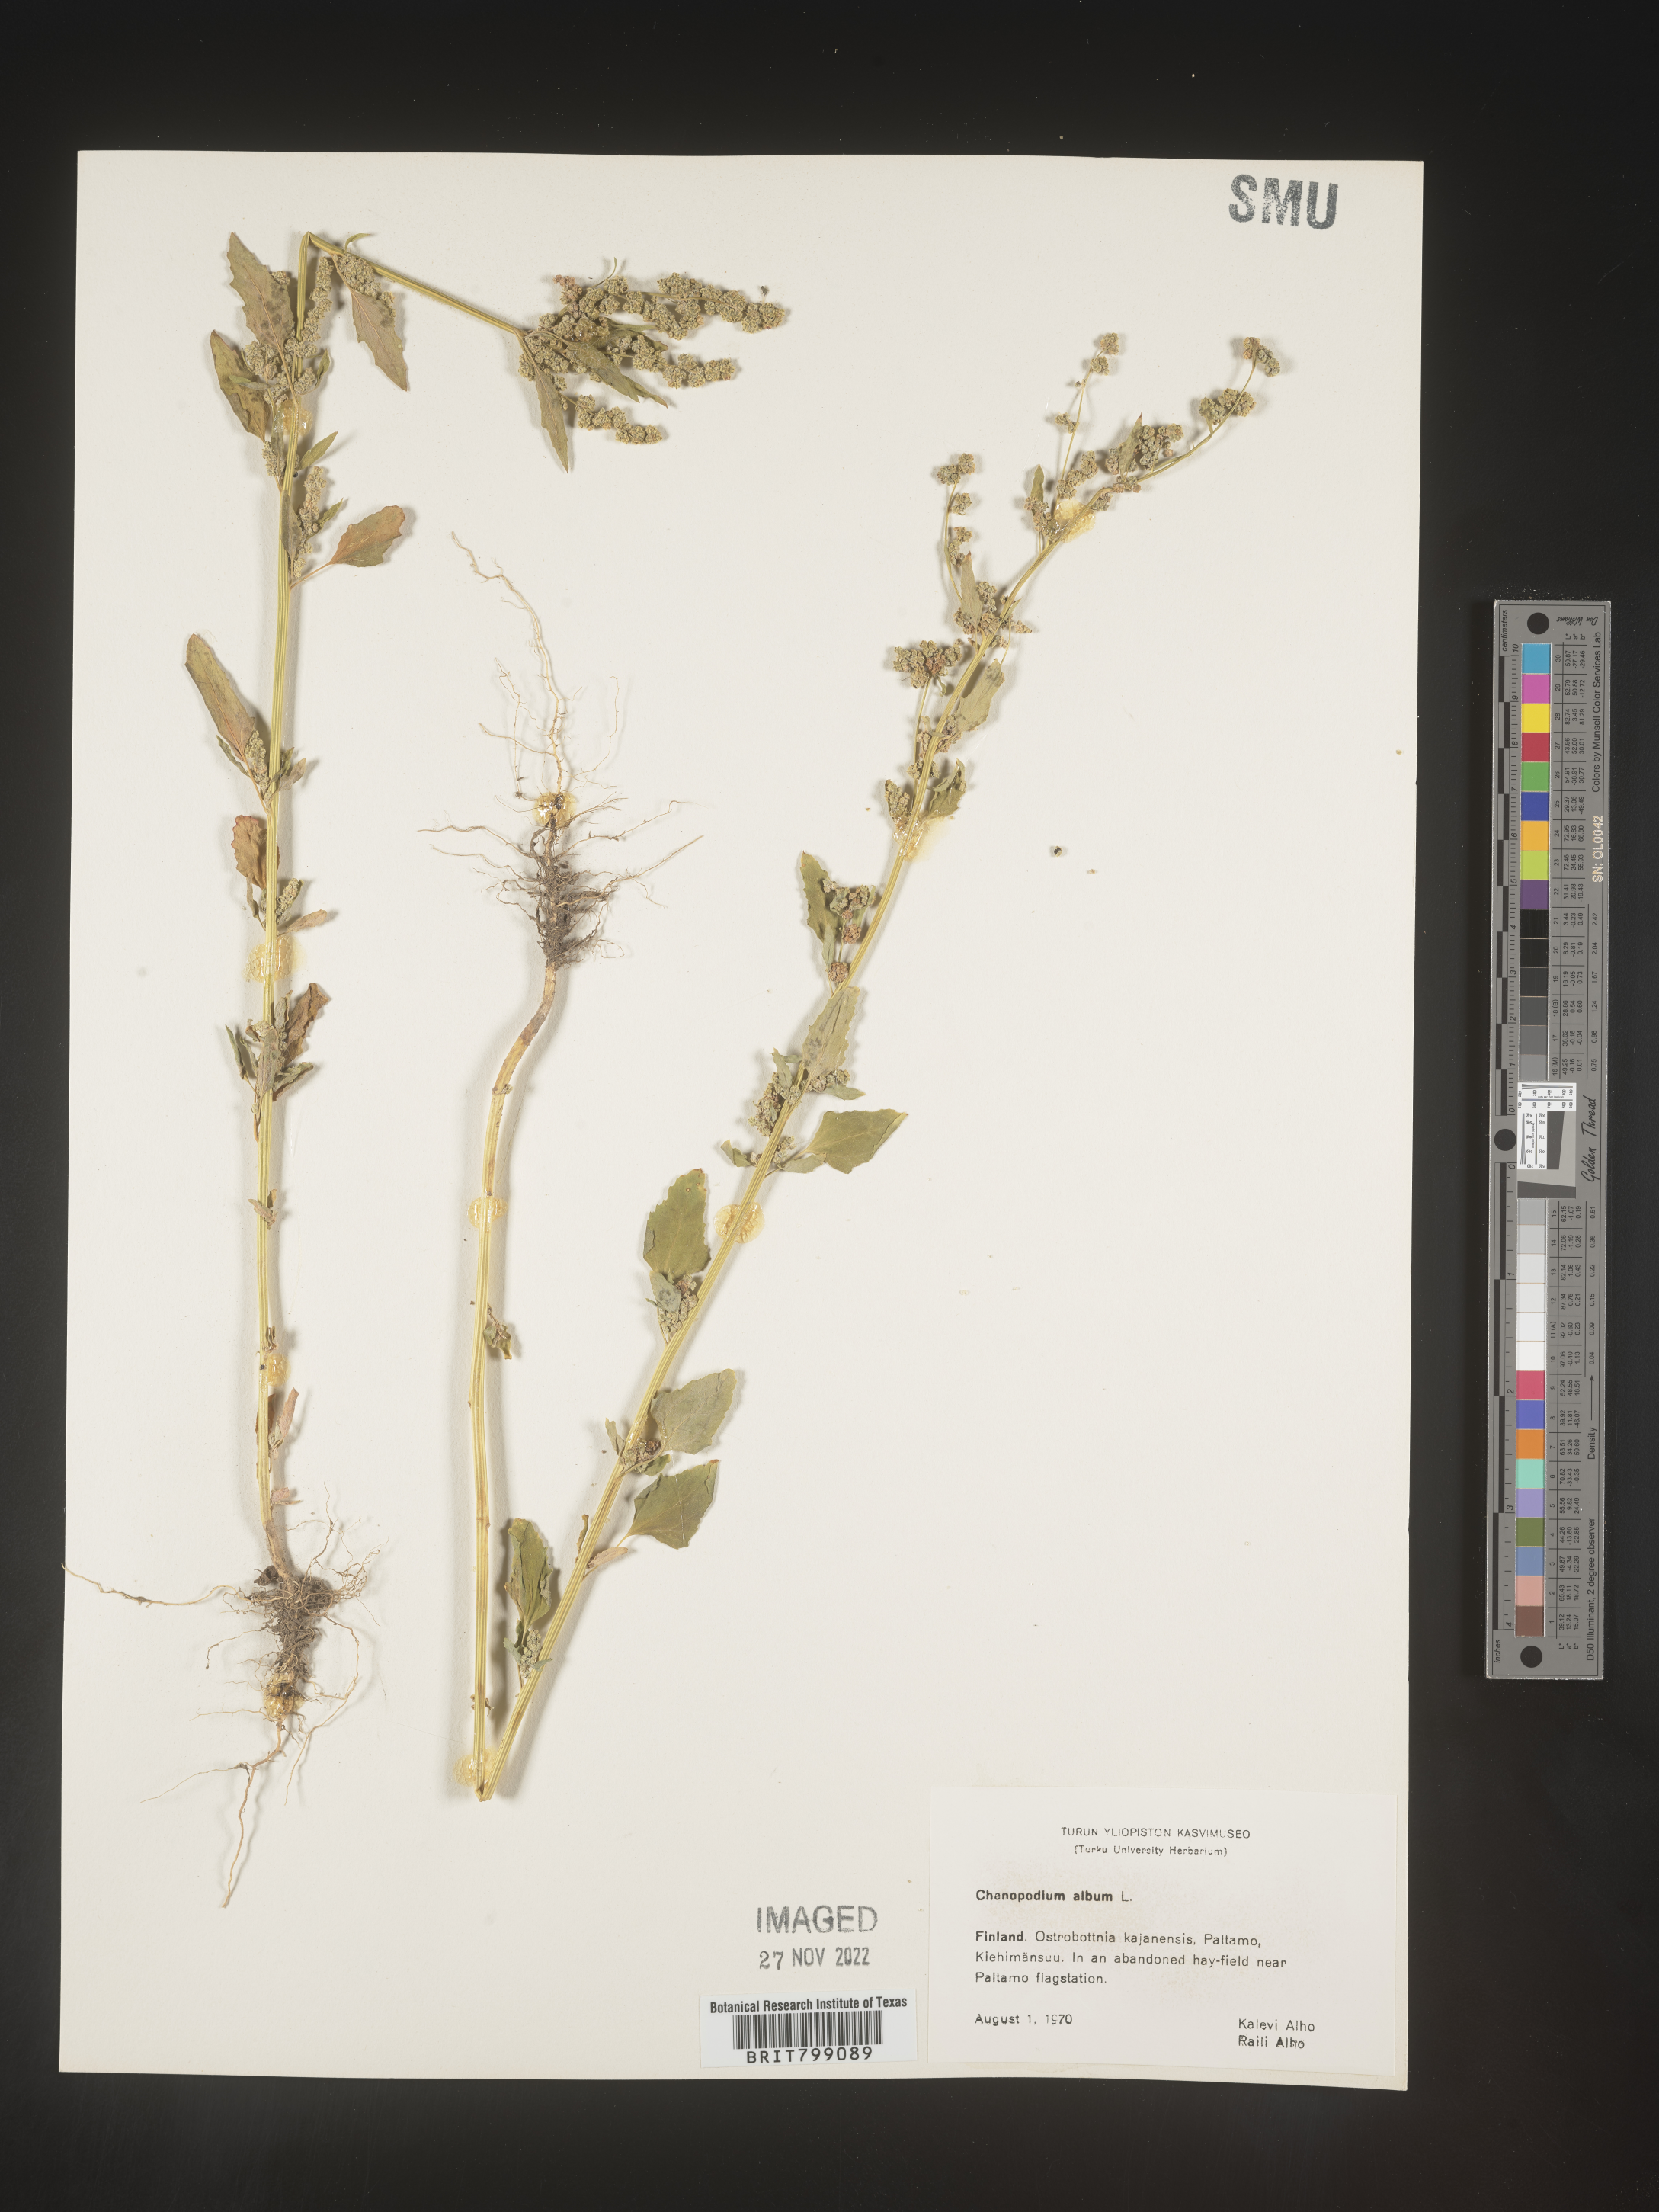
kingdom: Plantae
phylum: Tracheophyta
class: Magnoliopsida
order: Caryophyllales
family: Amaranthaceae
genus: Chenopodium
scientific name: Chenopodium
